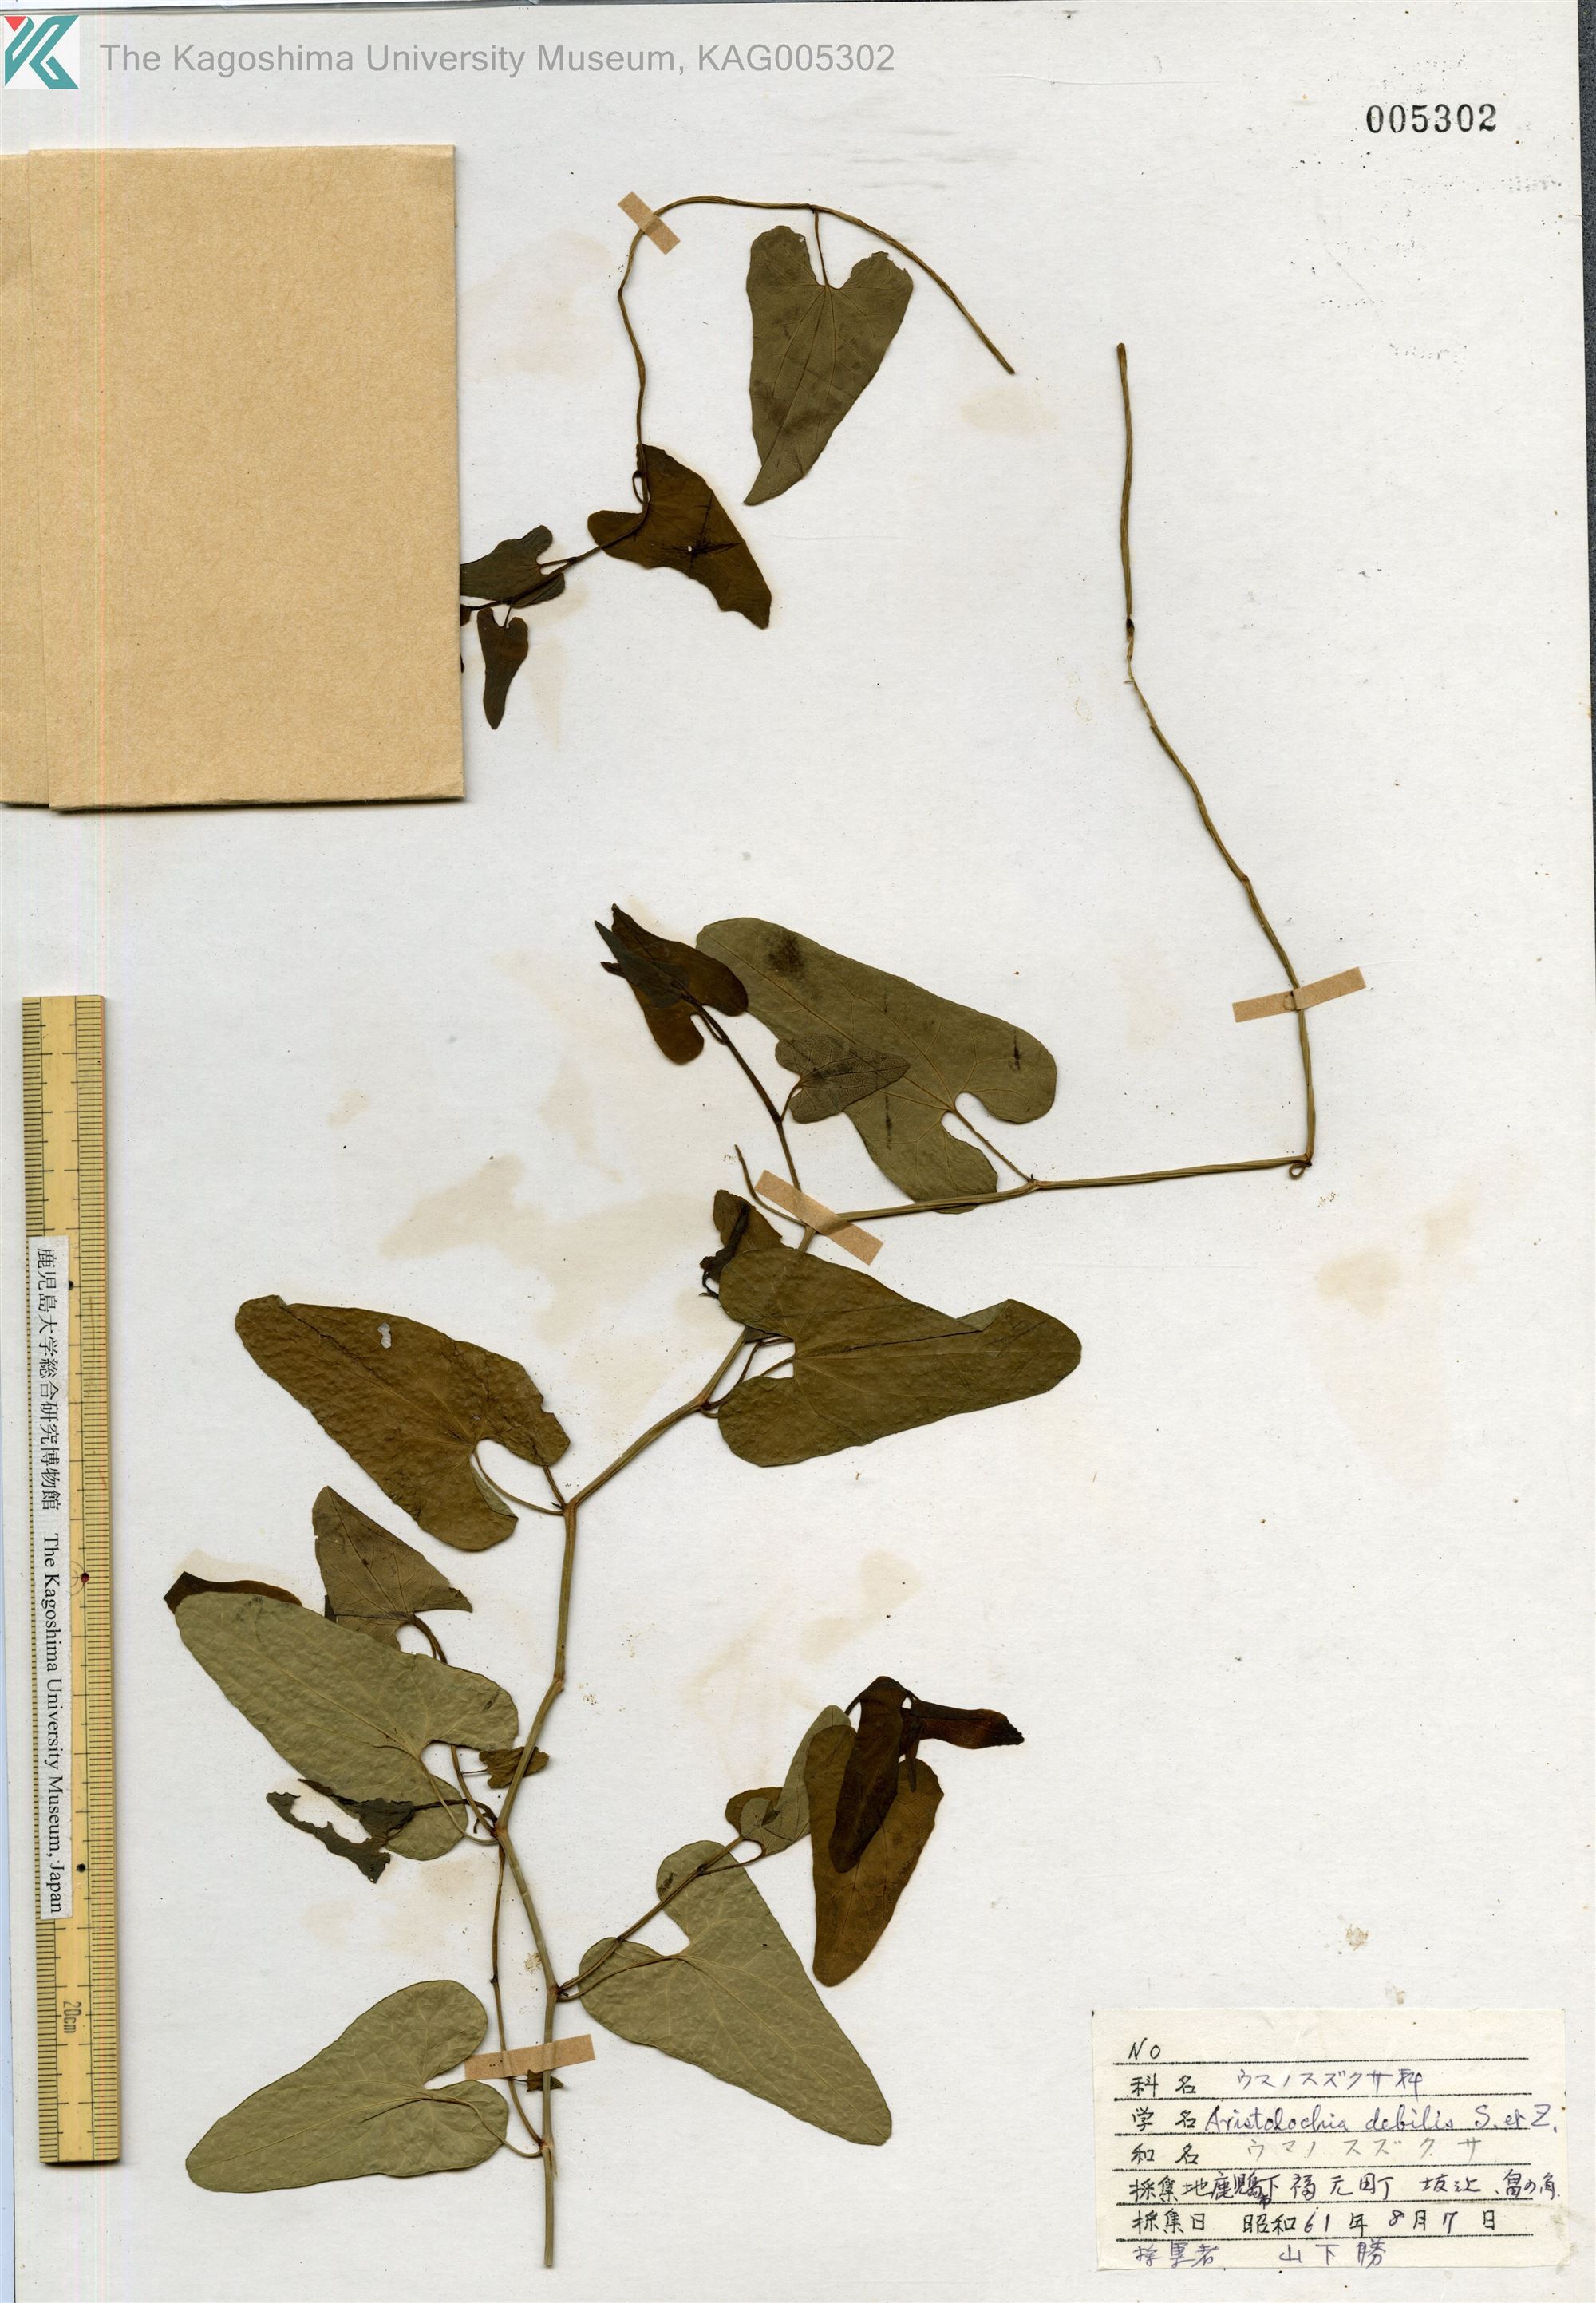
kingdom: Plantae
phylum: Tracheophyta
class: Magnoliopsida
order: Piperales
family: Aristolochiaceae
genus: Aristolochia
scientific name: Aristolochia debilis
